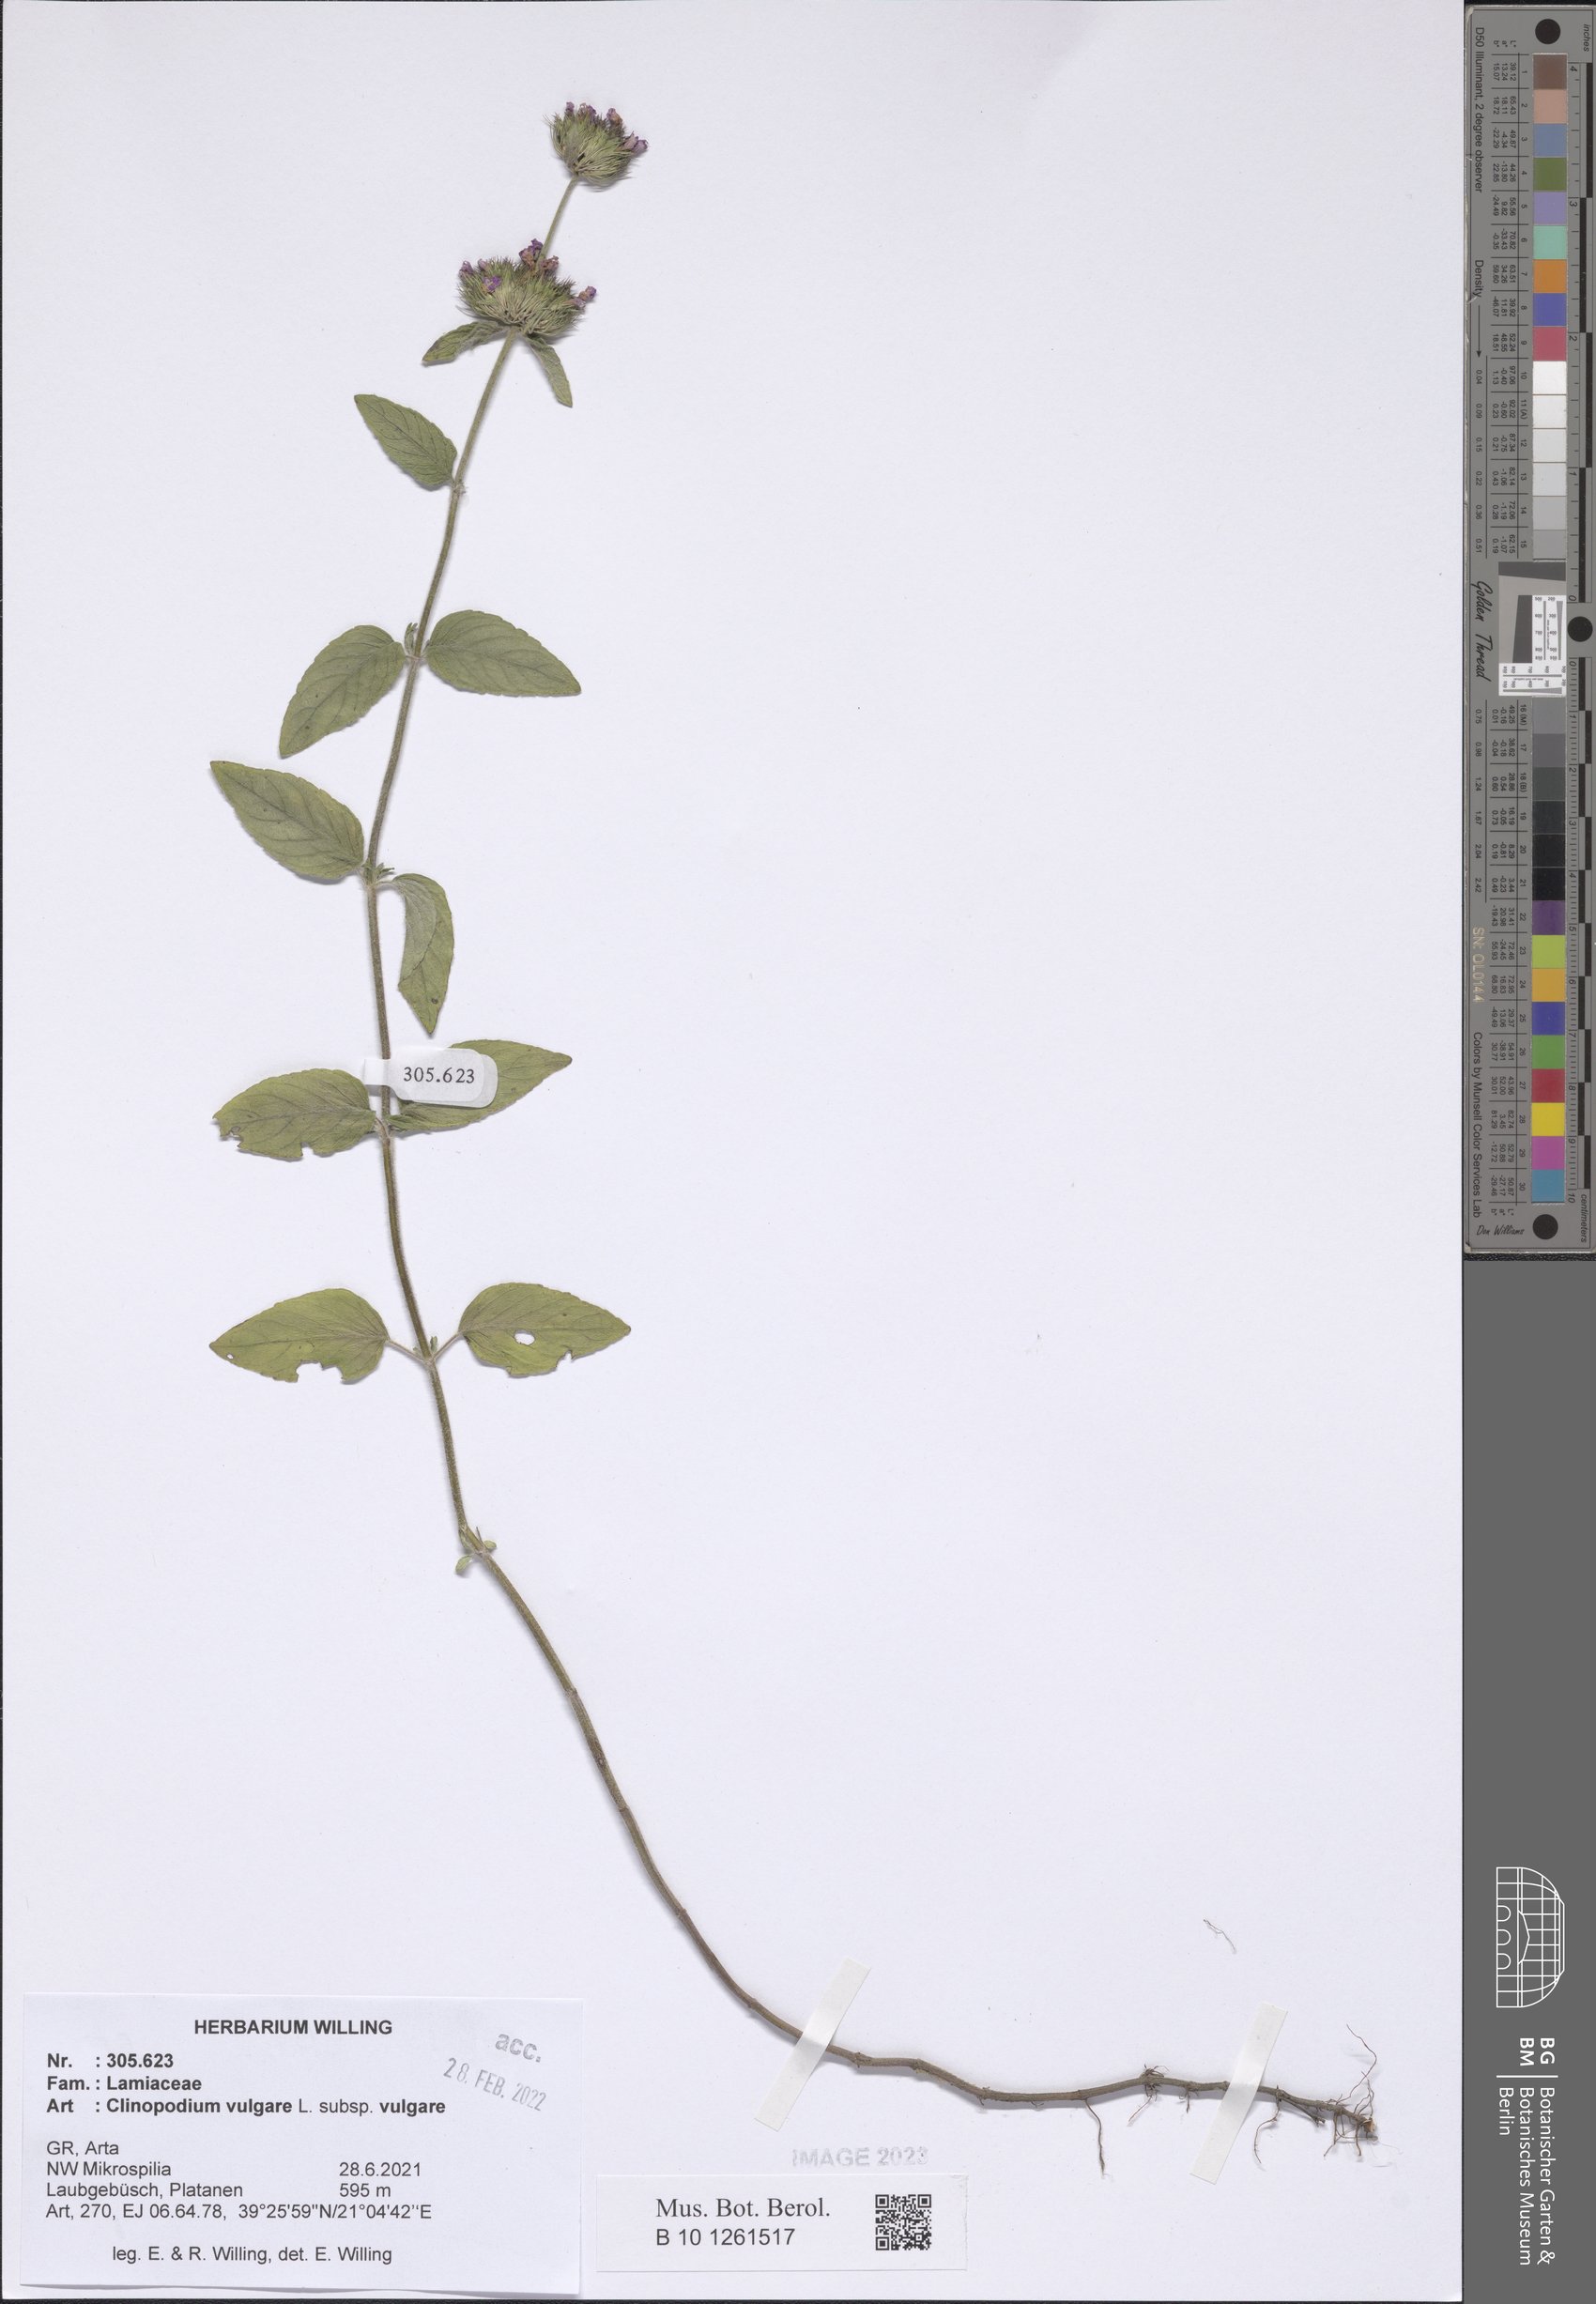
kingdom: Plantae
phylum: Tracheophyta
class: Magnoliopsida
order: Lamiales
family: Lamiaceae
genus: Clinopodium
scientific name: Clinopodium vulgare
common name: Wild basil
